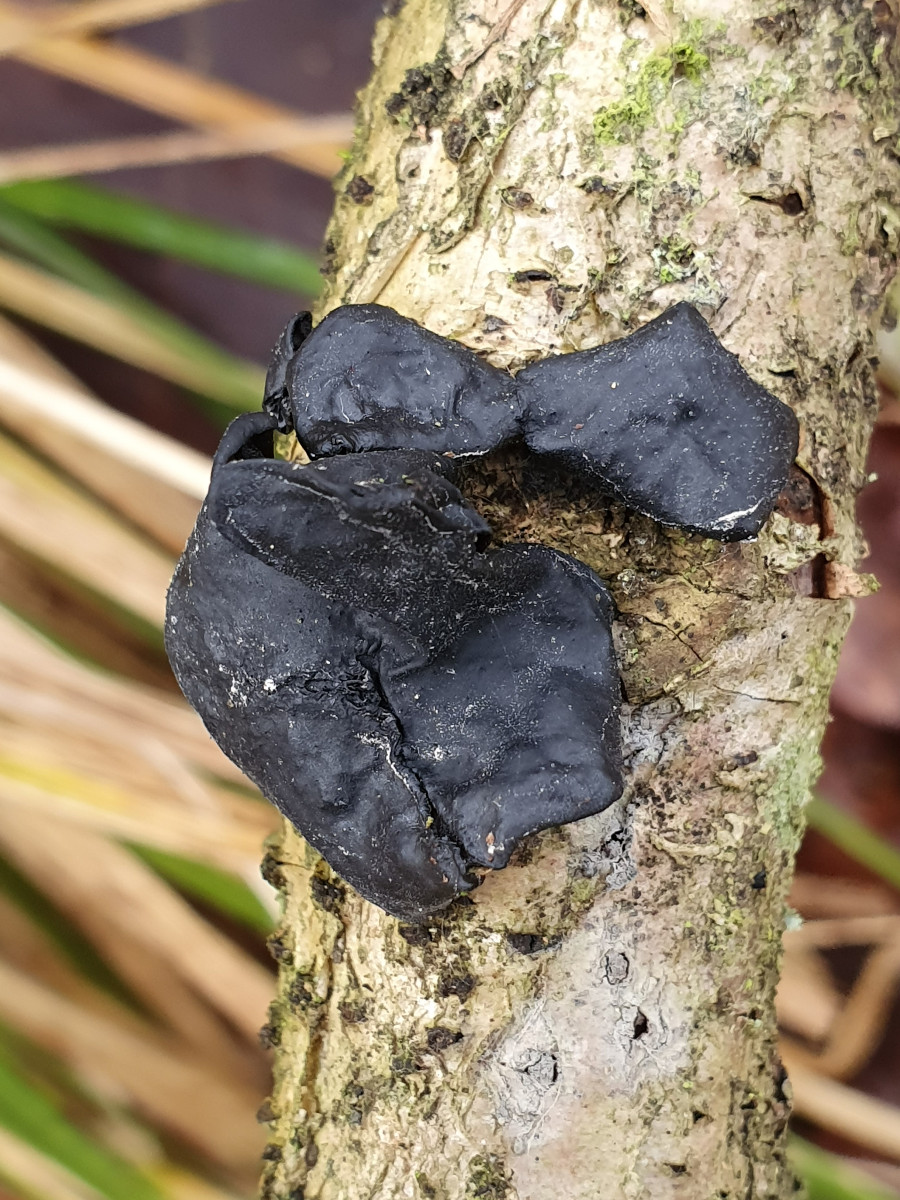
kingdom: Fungi
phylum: Basidiomycota
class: Agaricomycetes
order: Auriculariales
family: Auriculariaceae
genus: Exidia
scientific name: Exidia glandulosa
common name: ege-bævretop
